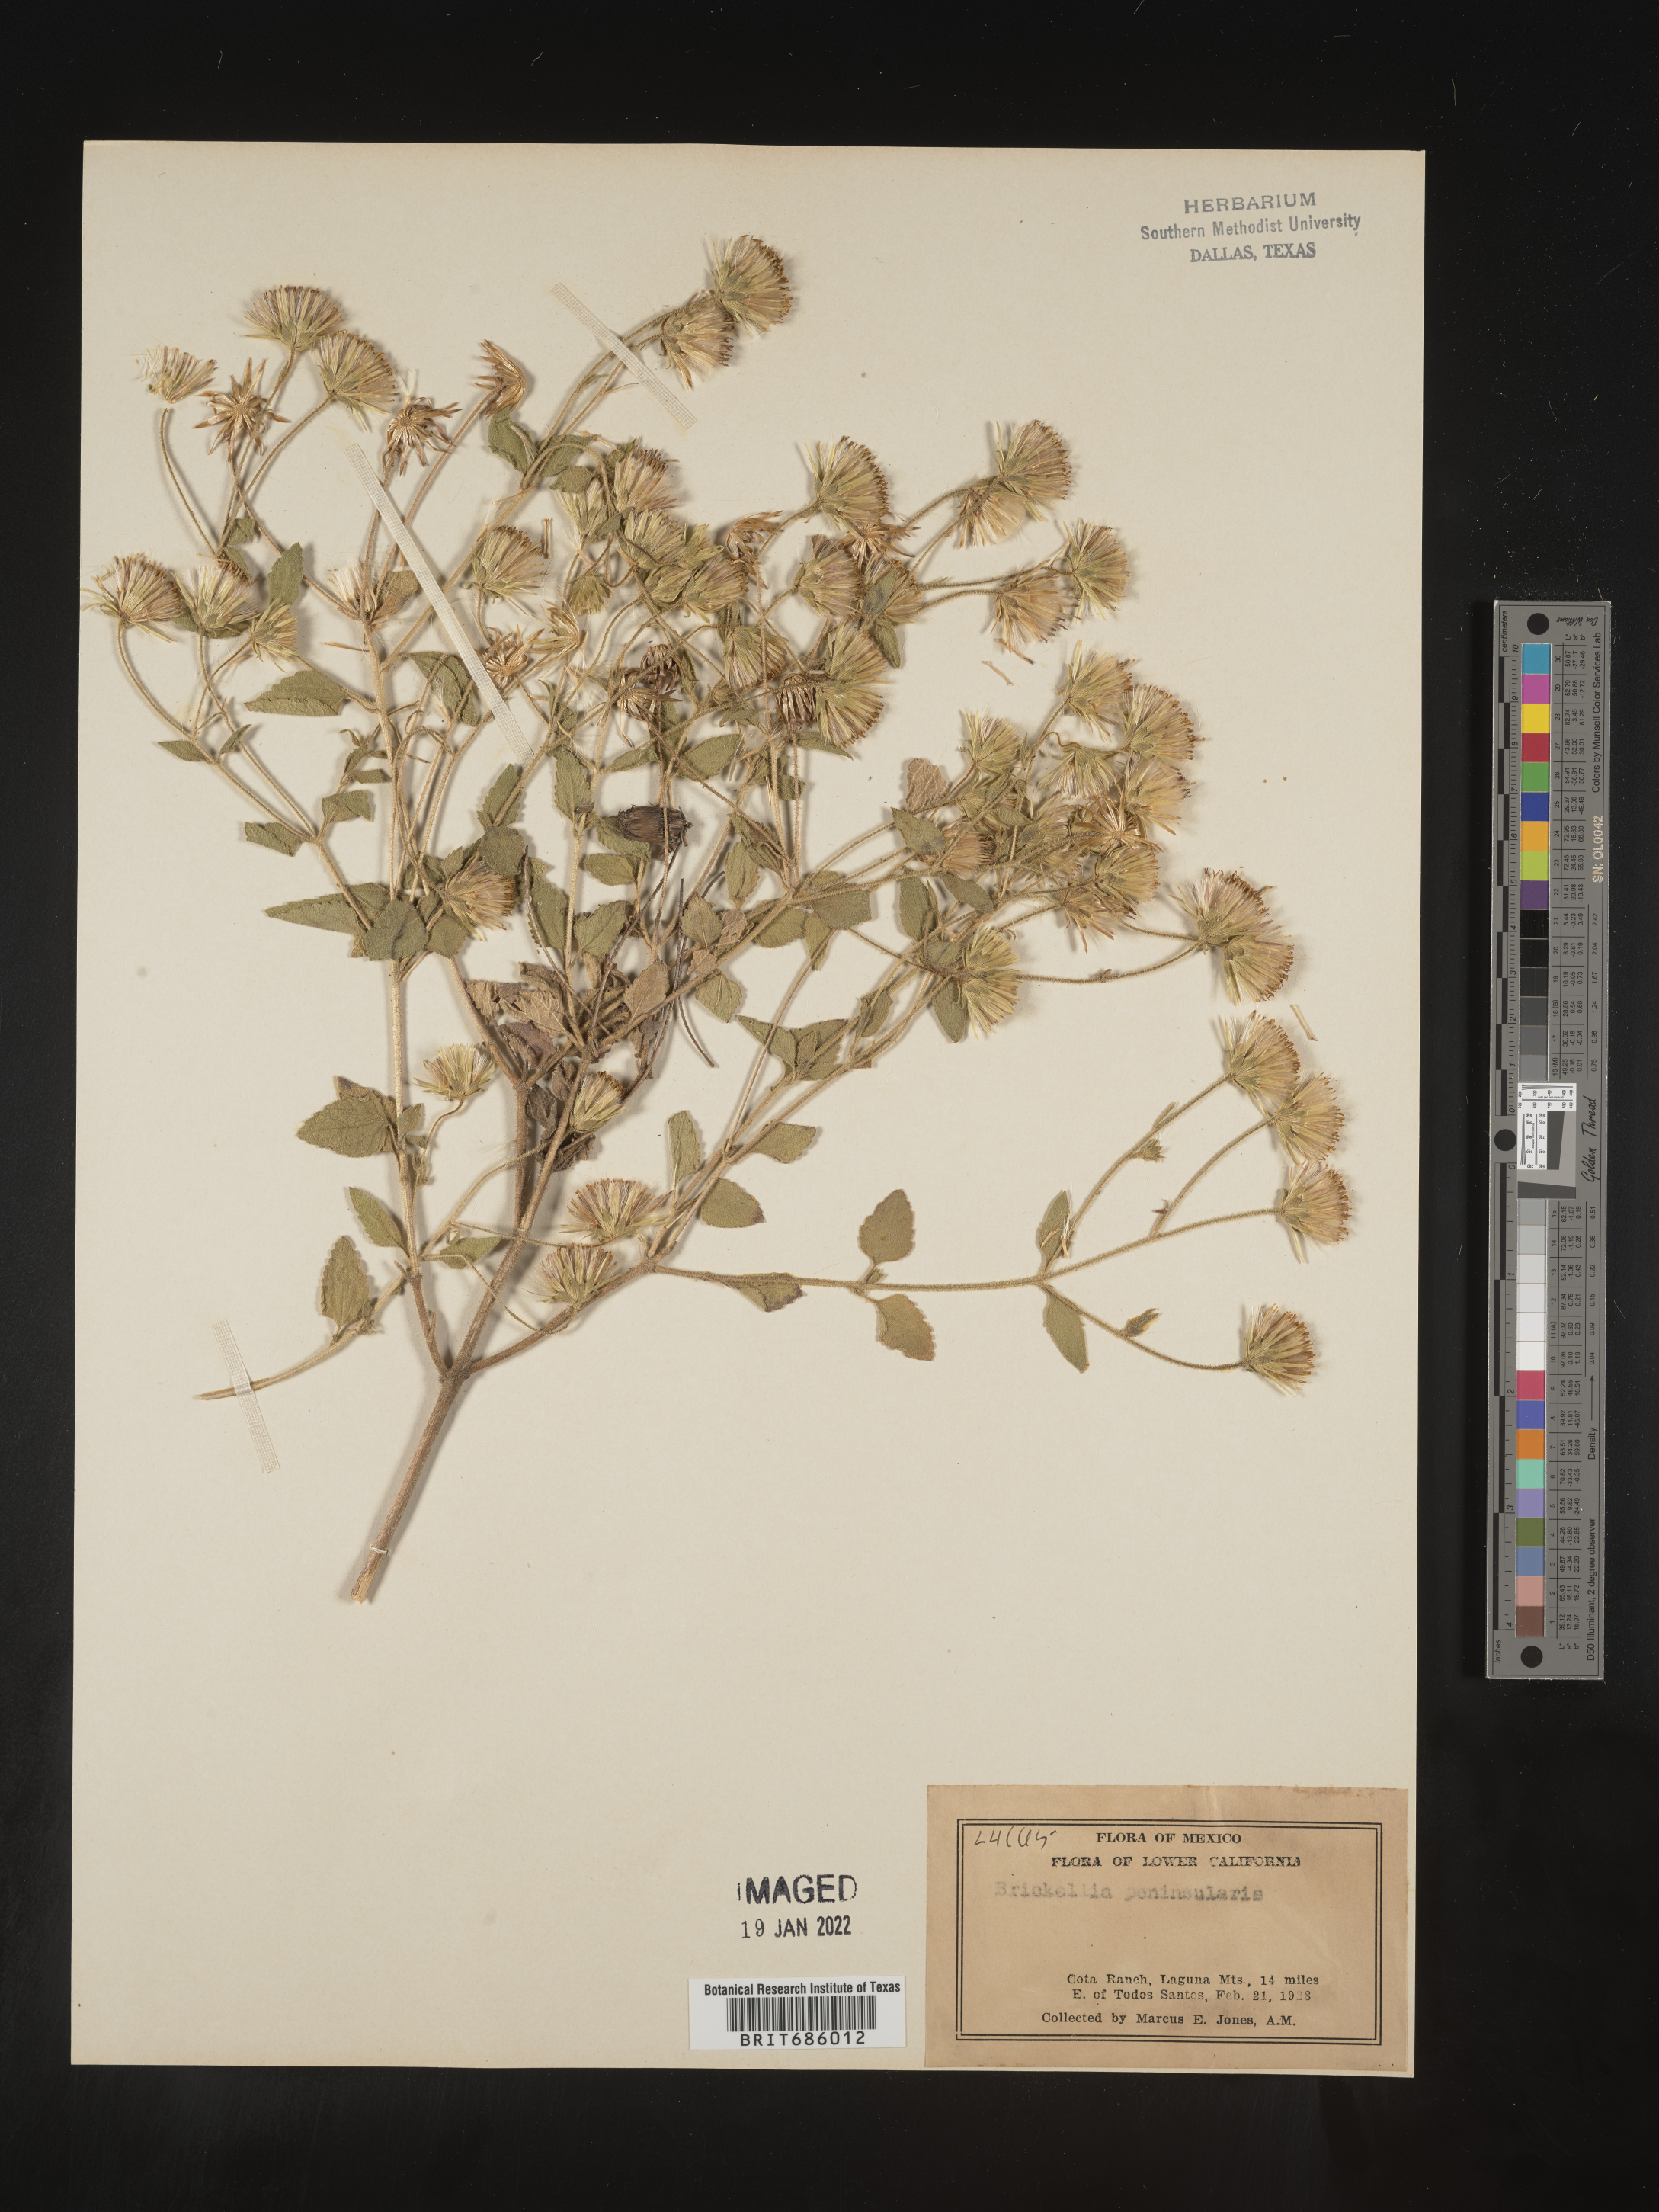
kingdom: Plantae
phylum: Tracheophyta
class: Magnoliopsida
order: Asterales
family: Asteraceae
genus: Brickellia
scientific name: Brickellia
